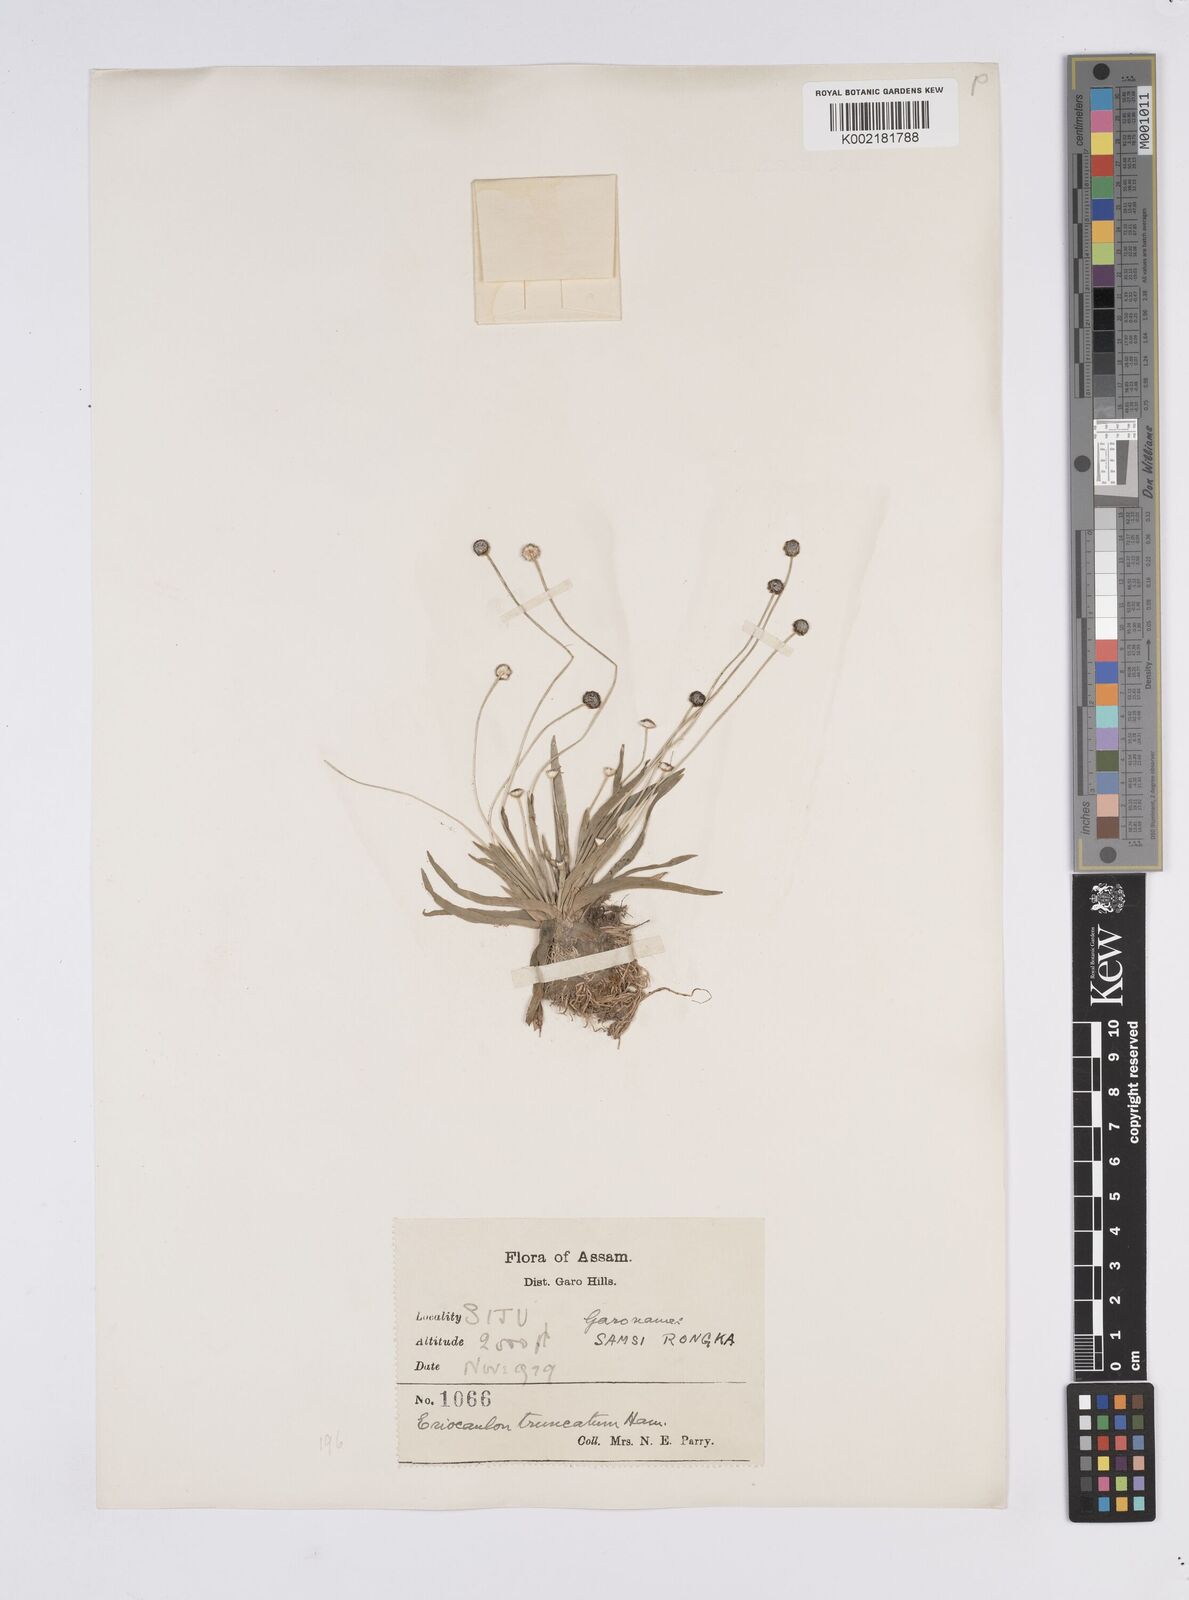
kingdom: Plantae
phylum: Tracheophyta
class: Liliopsida
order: Poales
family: Eriocaulaceae
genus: Eriocaulon
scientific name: Eriocaulon truncatum
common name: Short pipe-wort
